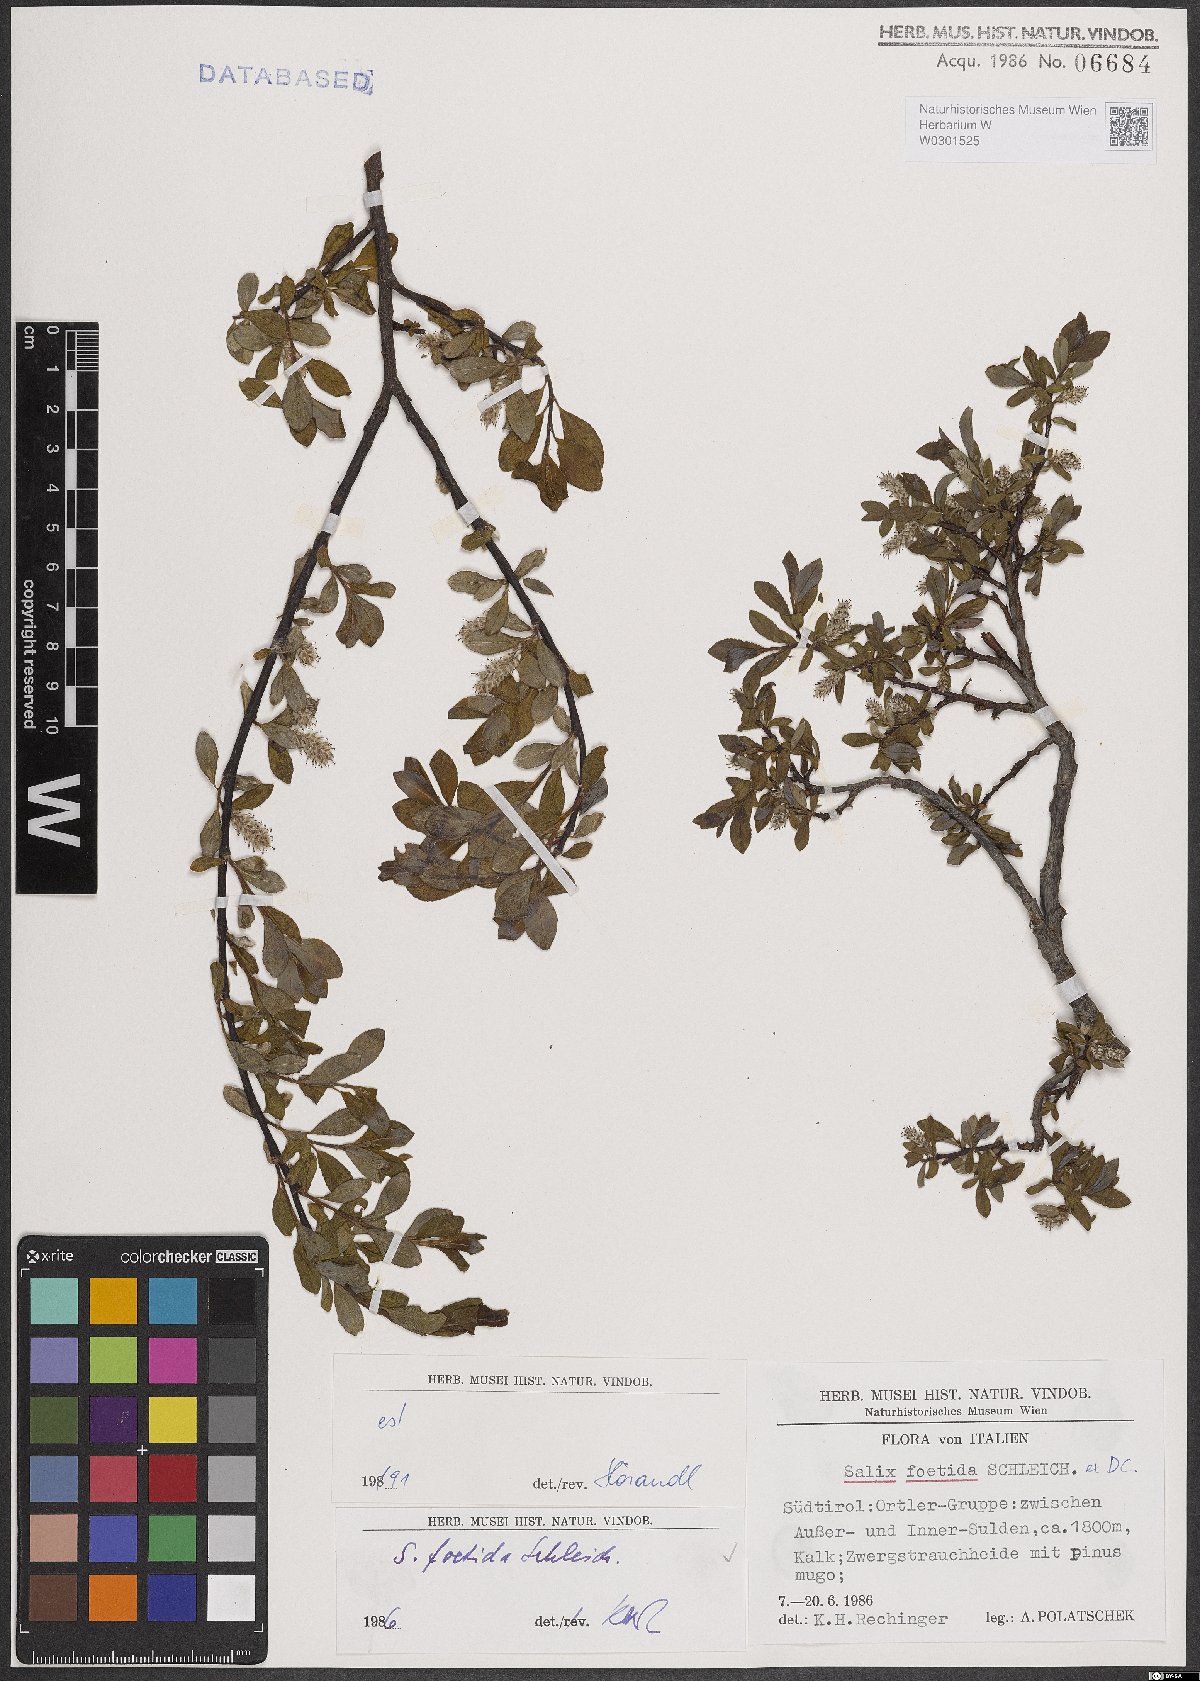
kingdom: Plantae
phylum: Tracheophyta
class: Magnoliopsida
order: Malpighiales
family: Salicaceae
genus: Salix
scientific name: Salix foetida
